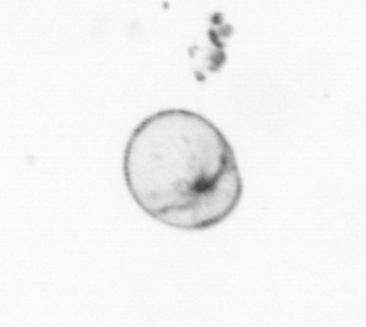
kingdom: Chromista
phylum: Myzozoa
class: Dinophyceae
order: Noctilucales
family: Noctilucaceae
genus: Noctiluca
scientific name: Noctiluca scintillans
